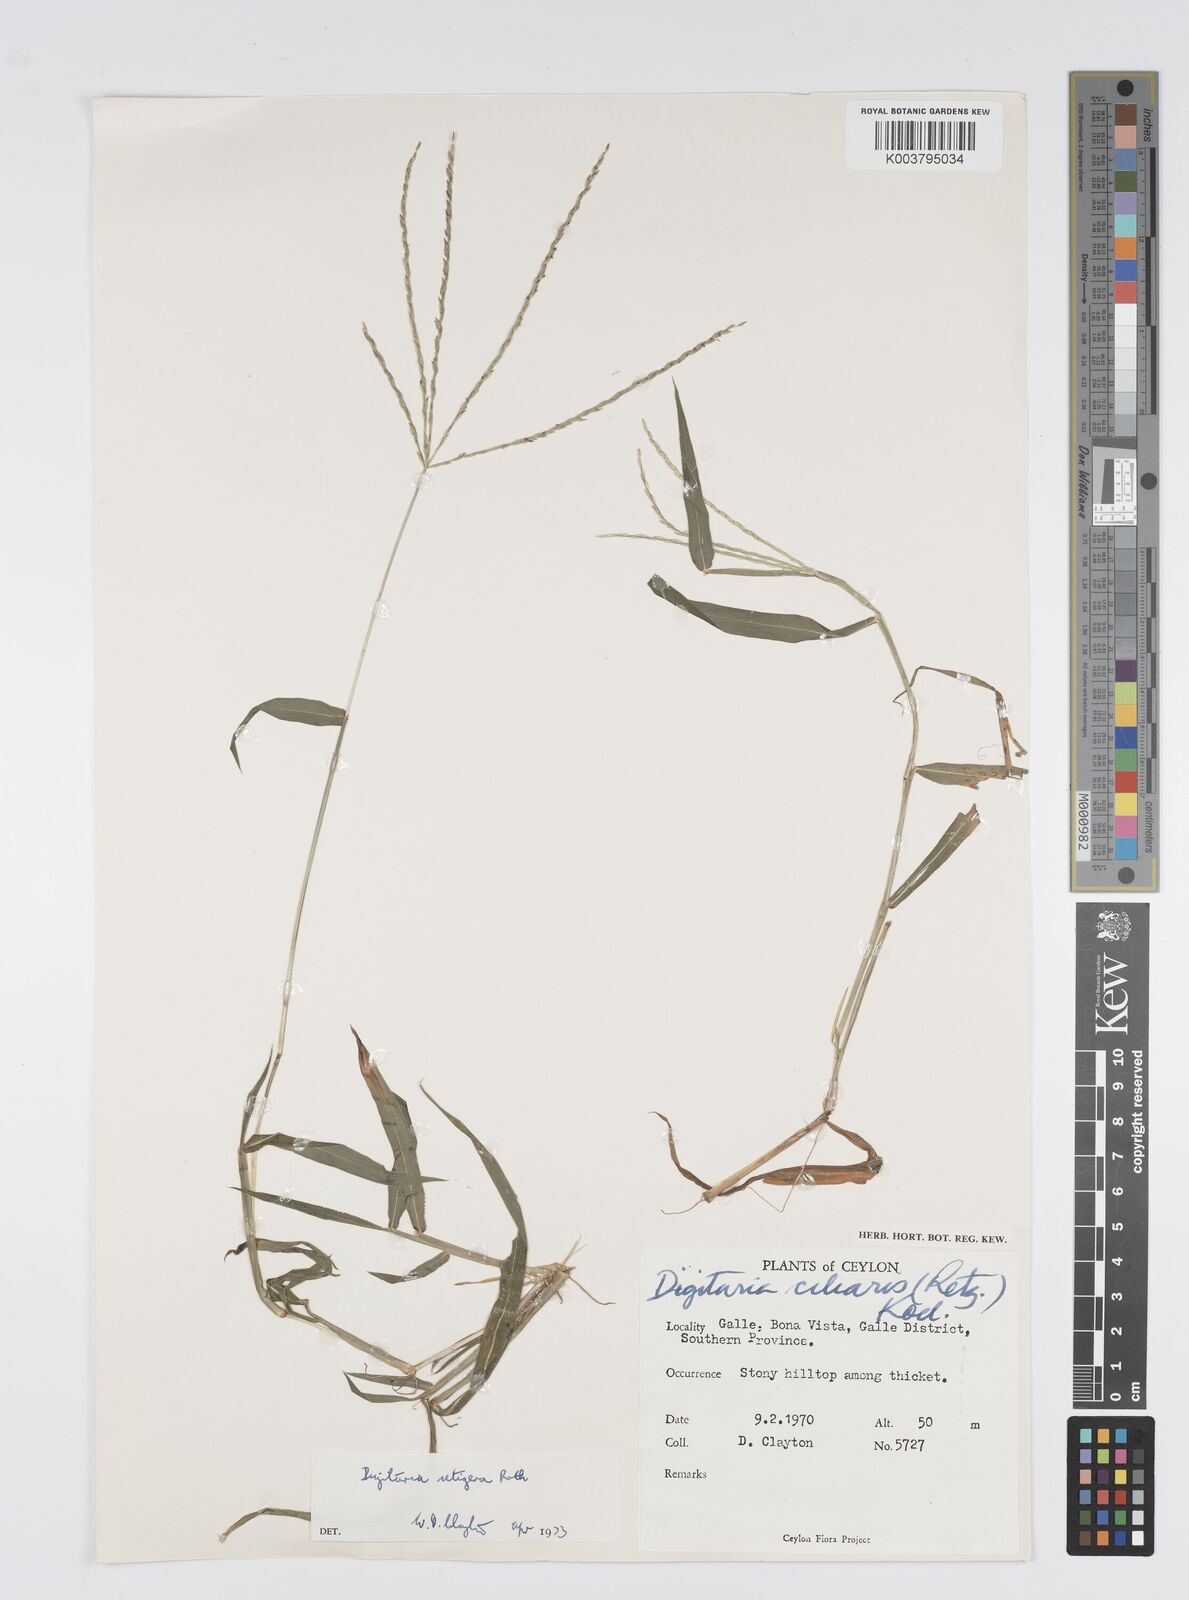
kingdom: Plantae
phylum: Tracheophyta
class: Liliopsida
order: Poales
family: Poaceae
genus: Digitaria
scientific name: Digitaria setigera
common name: East indian crabgrass
